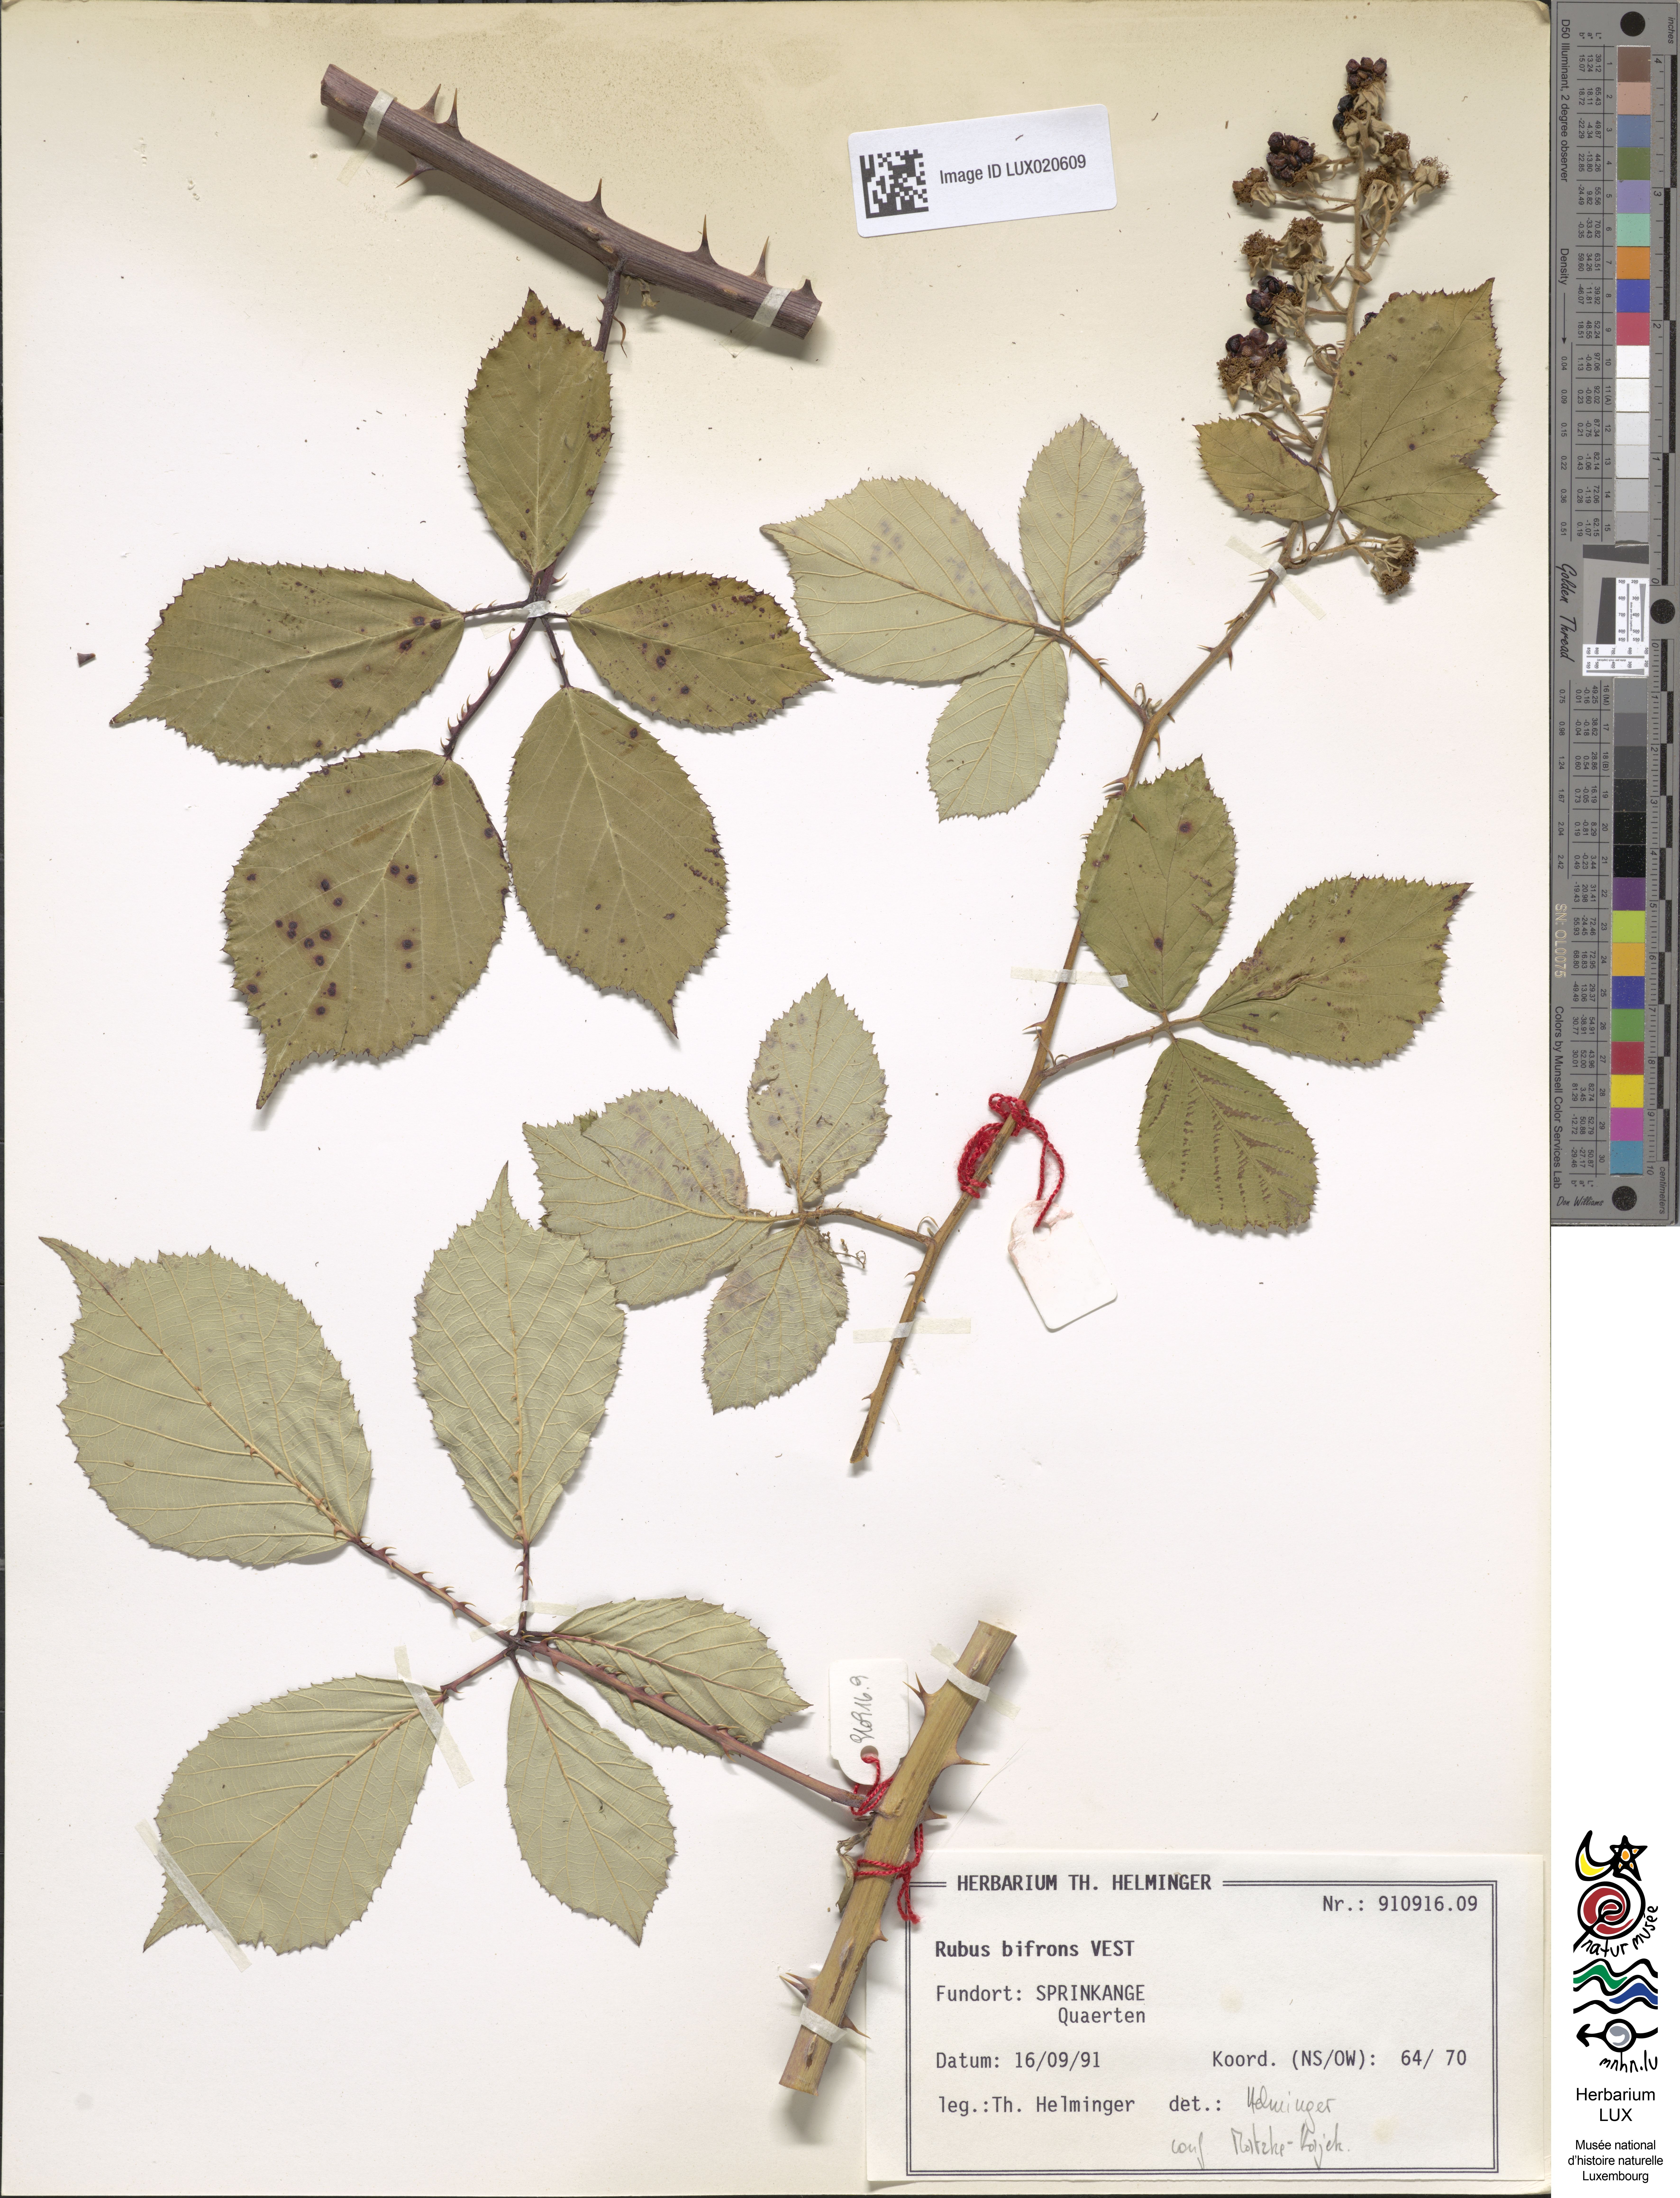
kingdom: Plantae
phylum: Tracheophyta
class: Magnoliopsida
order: Rosales
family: Rosaceae
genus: Rubus
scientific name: Rubus bifrons
